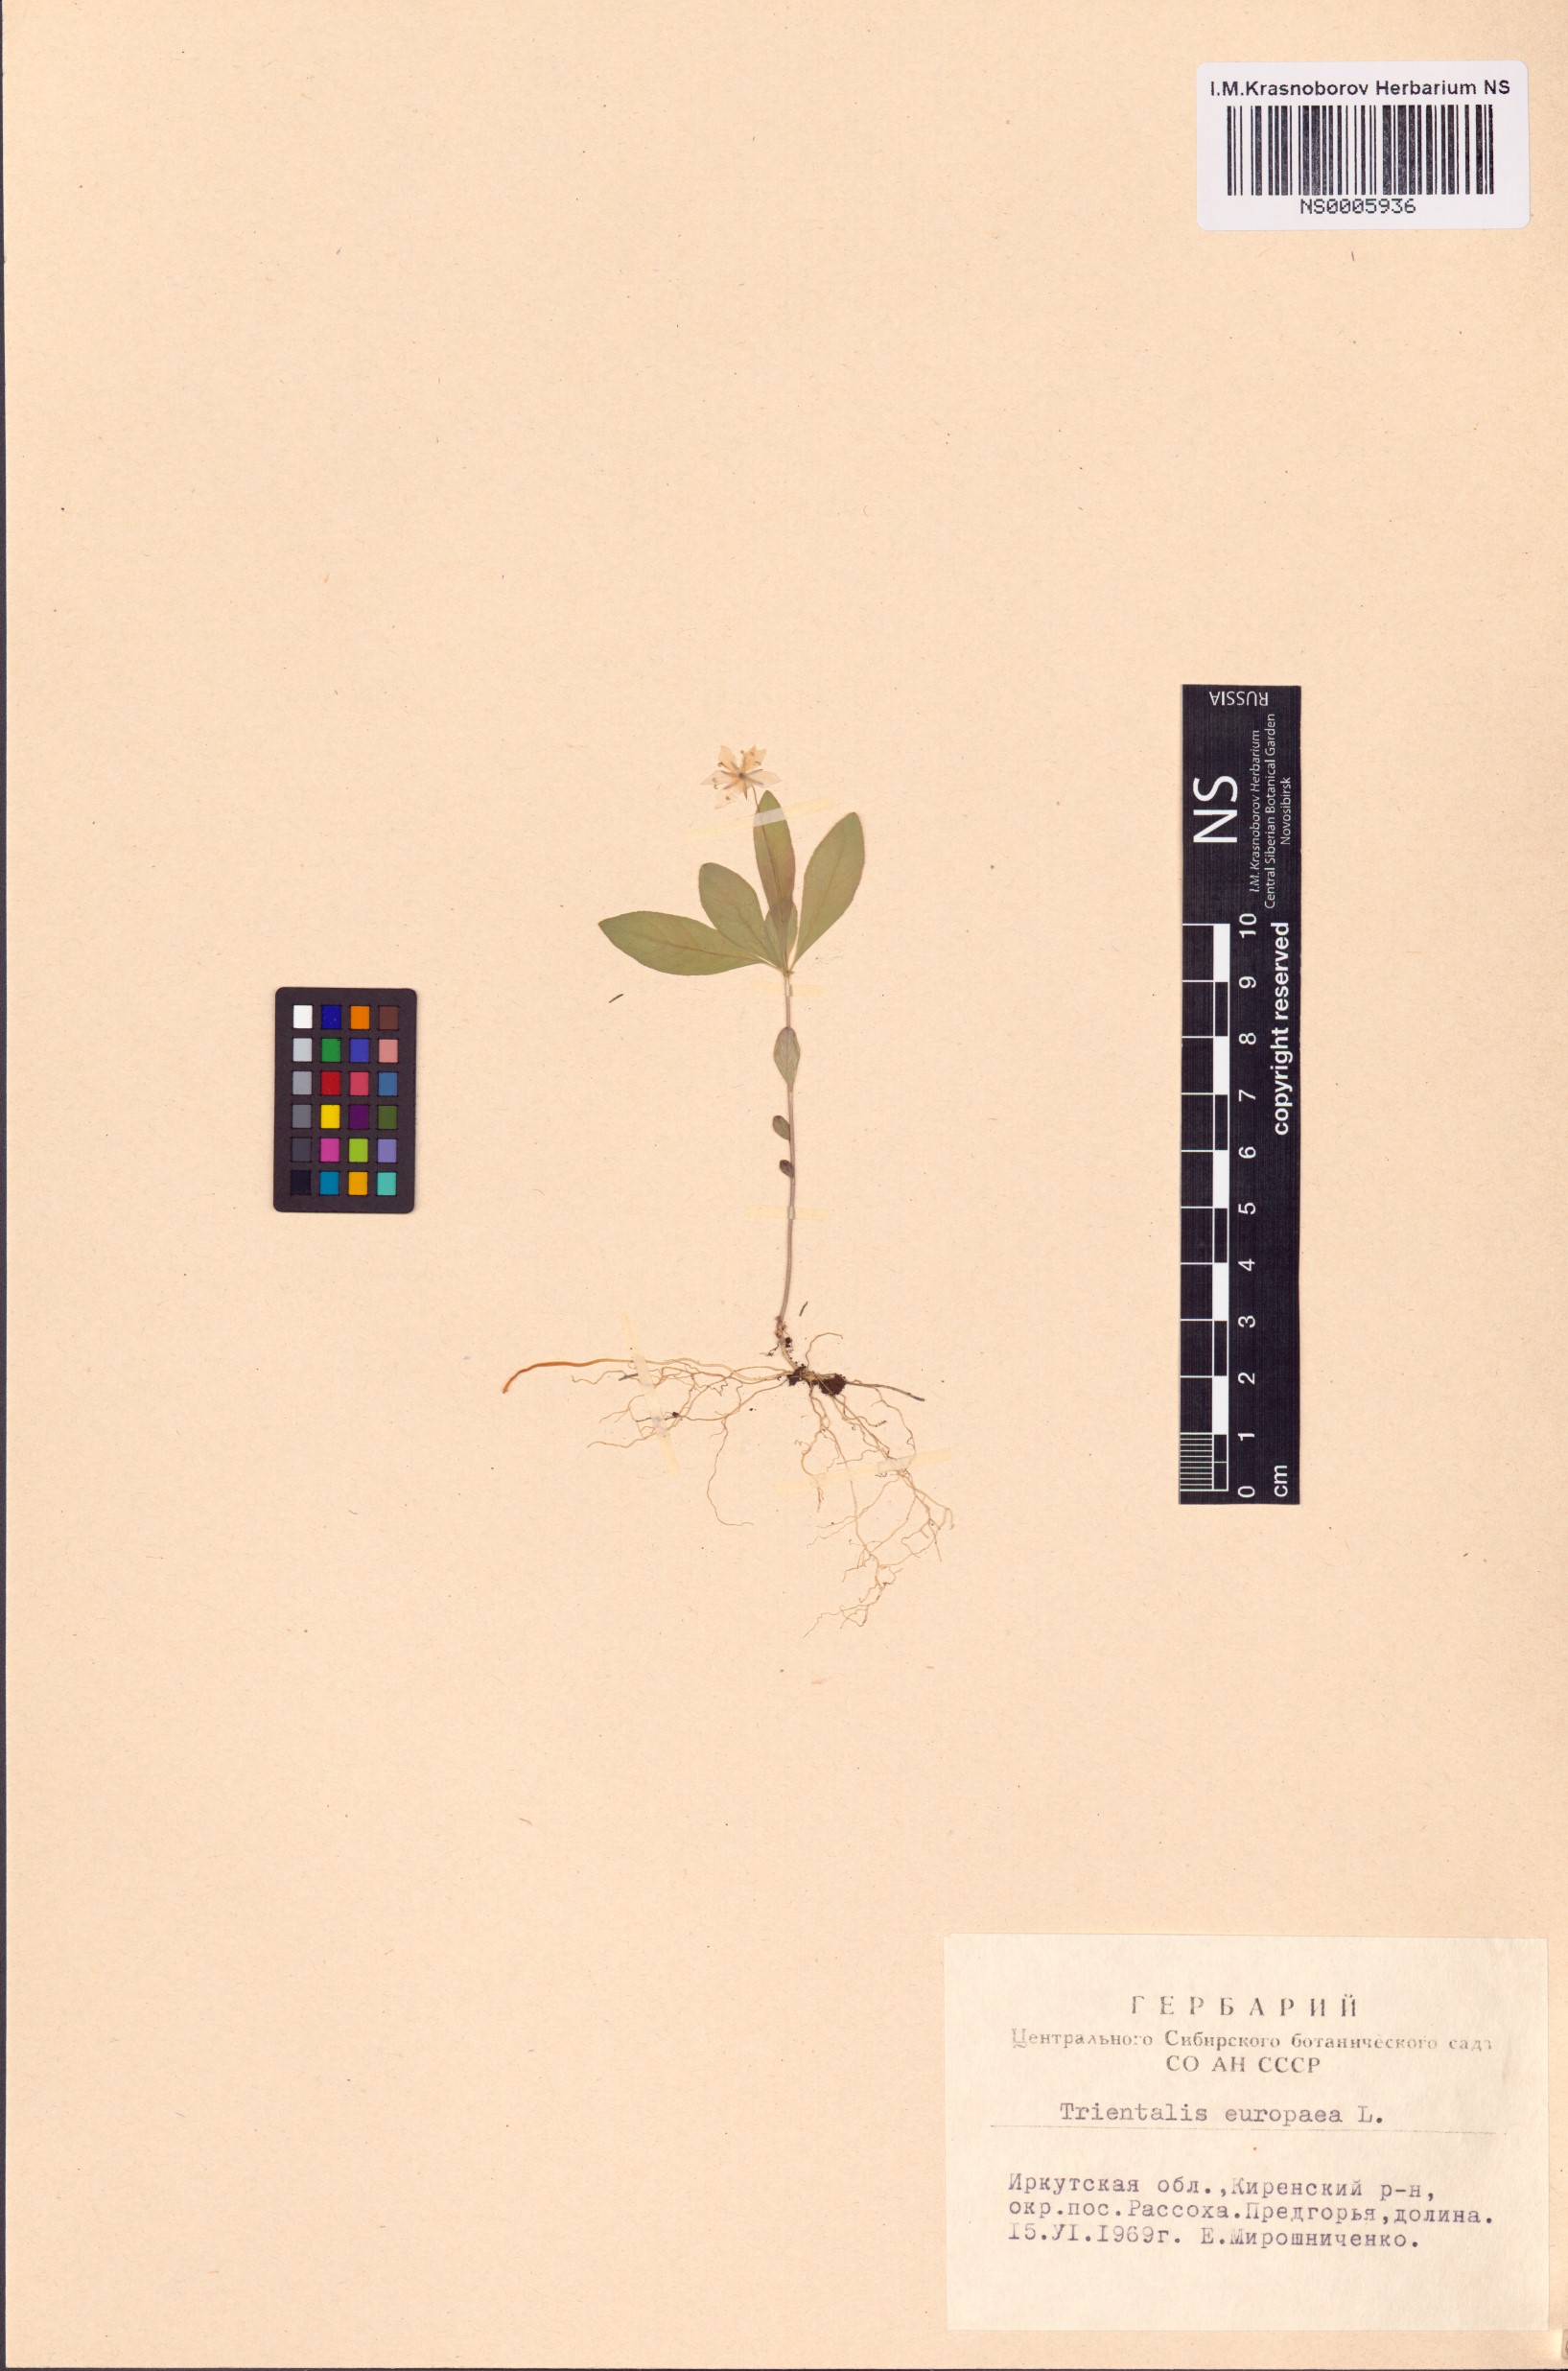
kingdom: Plantae
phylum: Tracheophyta
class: Magnoliopsida
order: Ericales
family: Primulaceae
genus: Lysimachia
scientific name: Lysimachia europaea
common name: Arctic starflower
